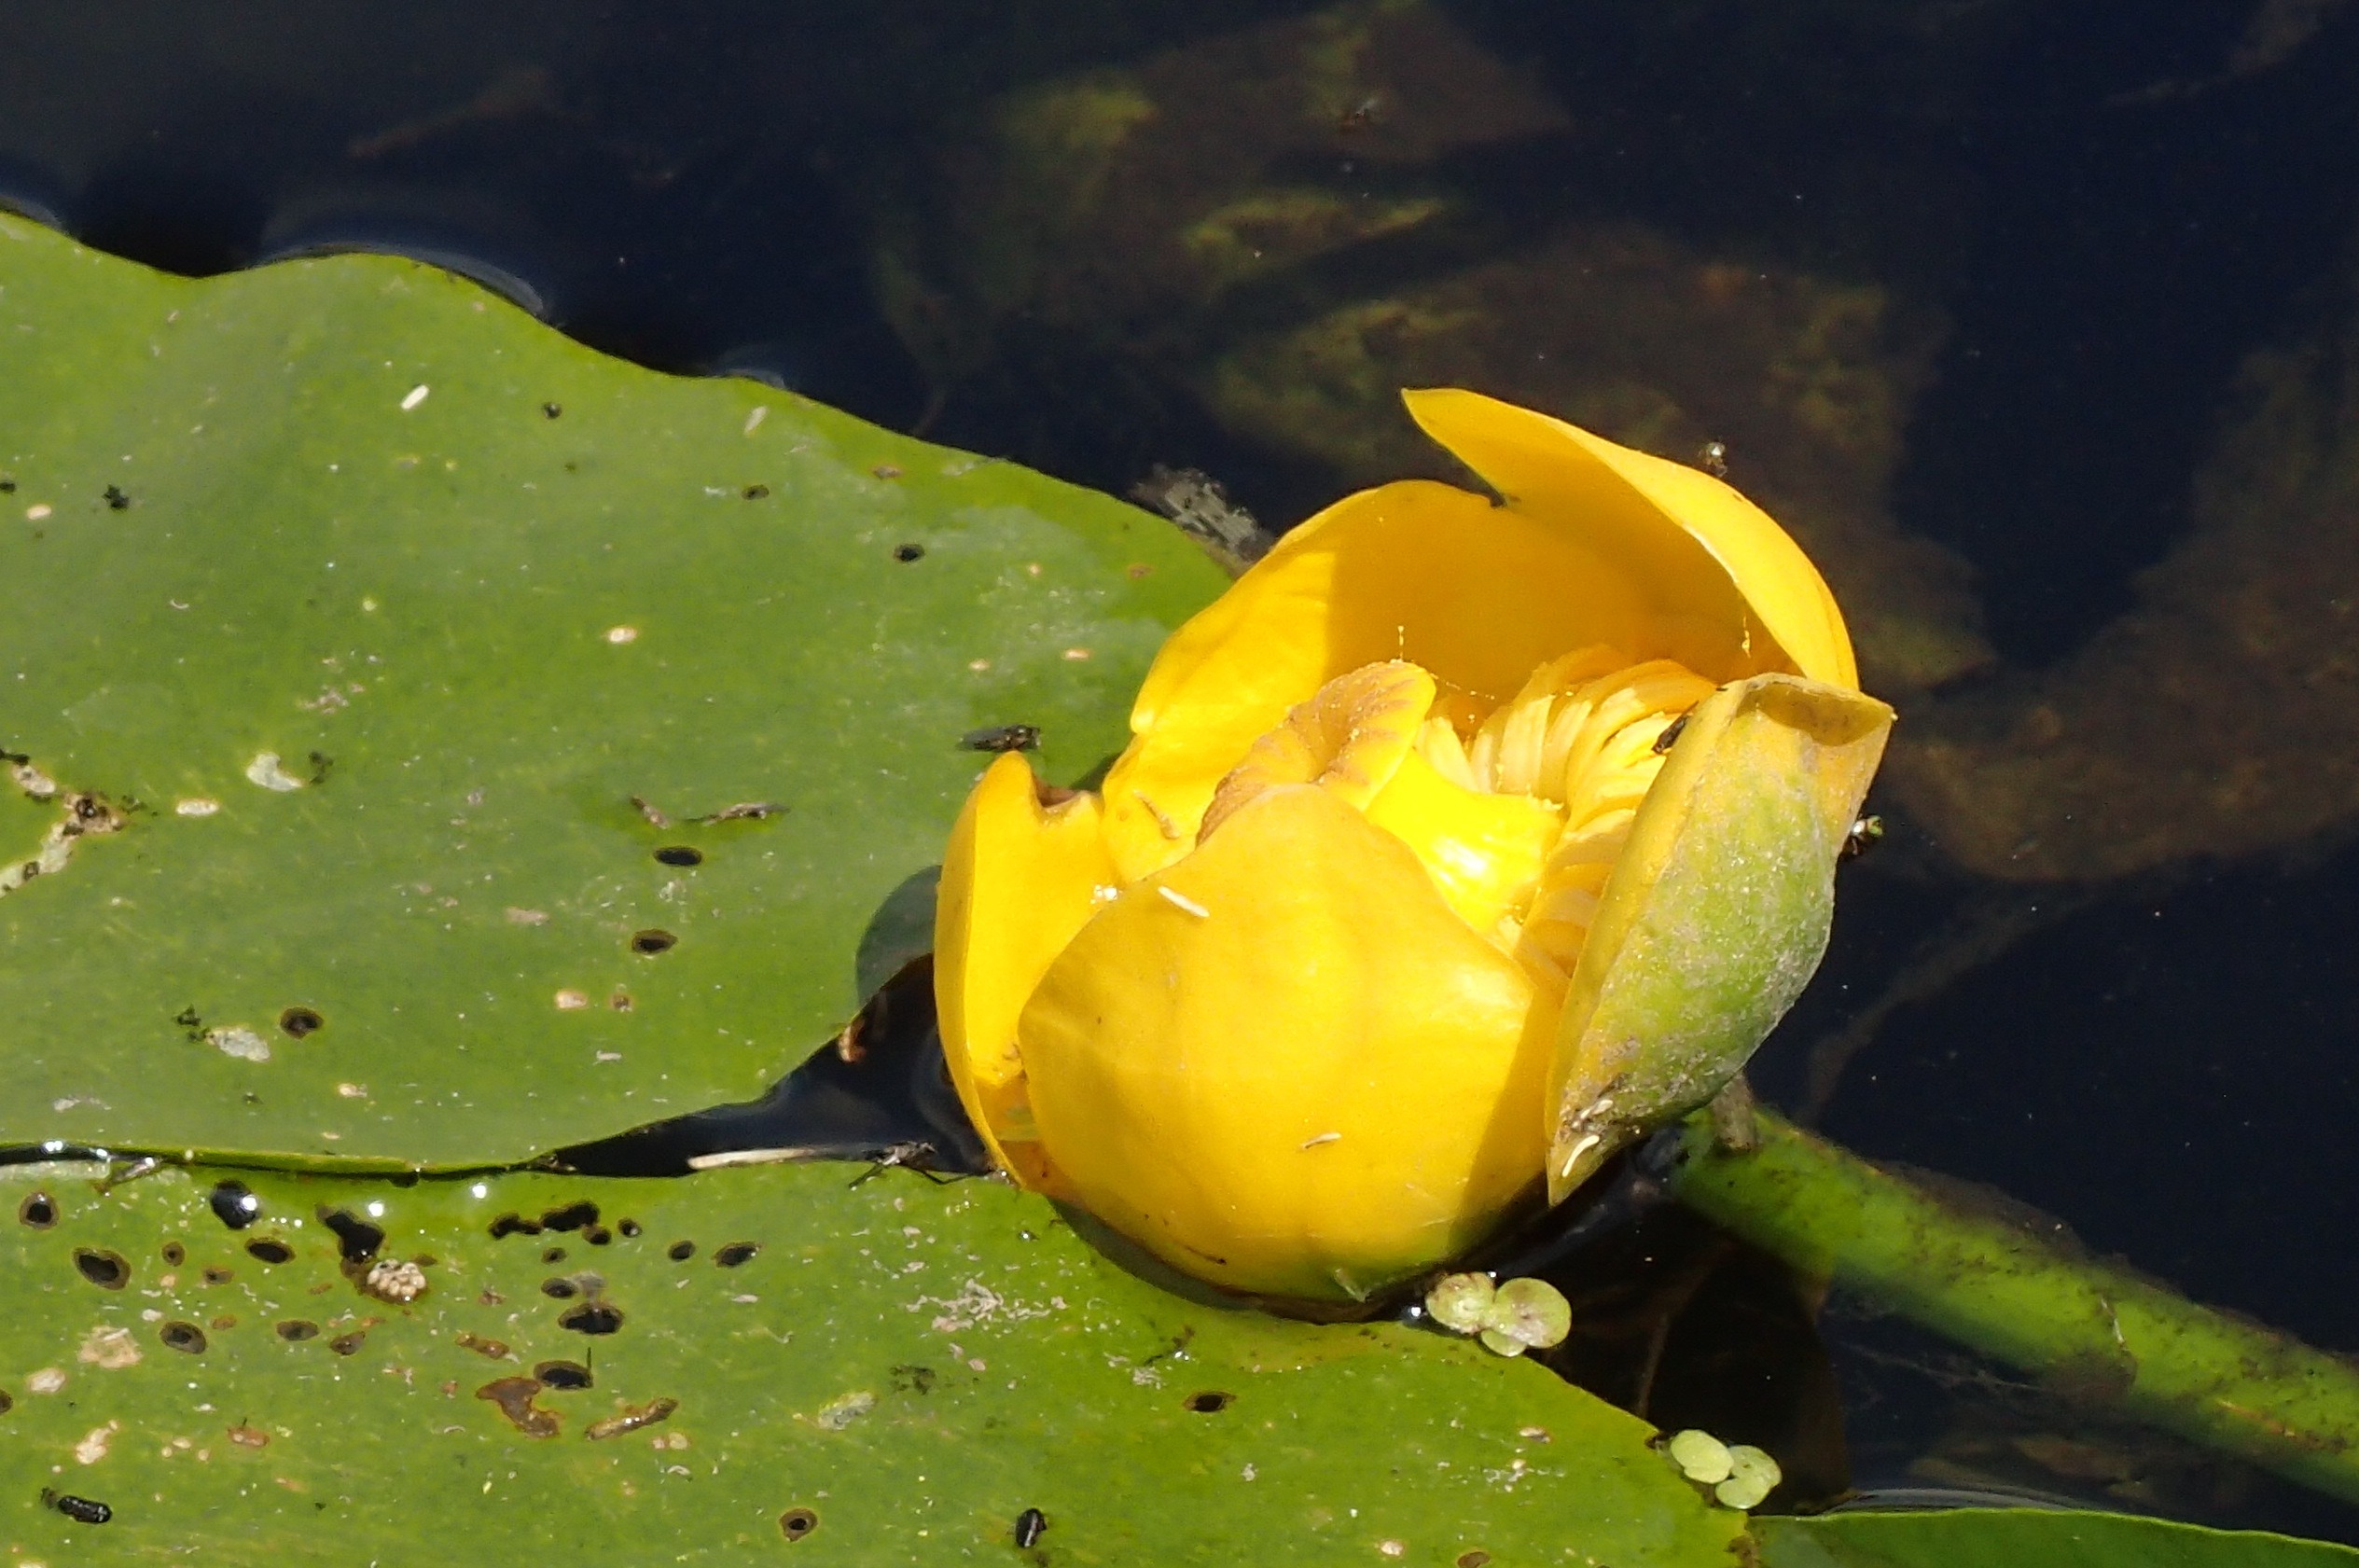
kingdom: Plantae
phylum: Tracheophyta
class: Magnoliopsida
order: Nymphaeales
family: Nymphaeaceae
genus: Nuphar
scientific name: Nuphar lutea
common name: Gul åkande
